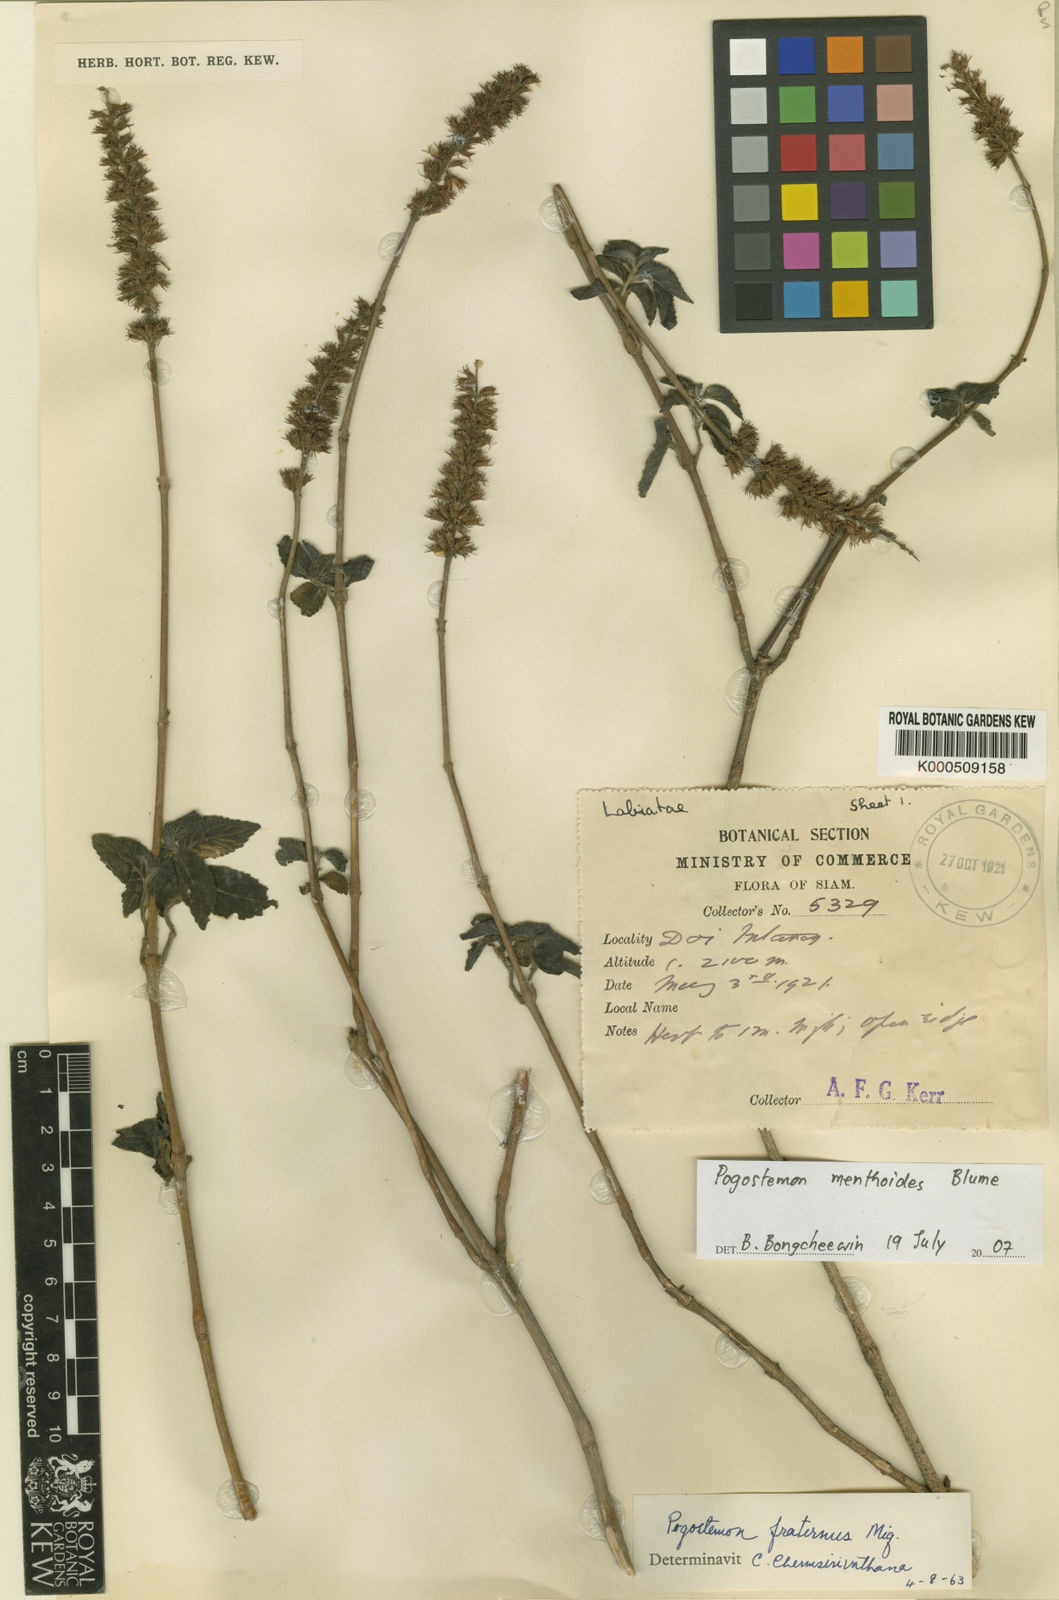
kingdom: Plantae
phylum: Tracheophyta
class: Magnoliopsida
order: Lamiales
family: Lamiaceae
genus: Pogostemon
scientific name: Pogostemon menthoides
